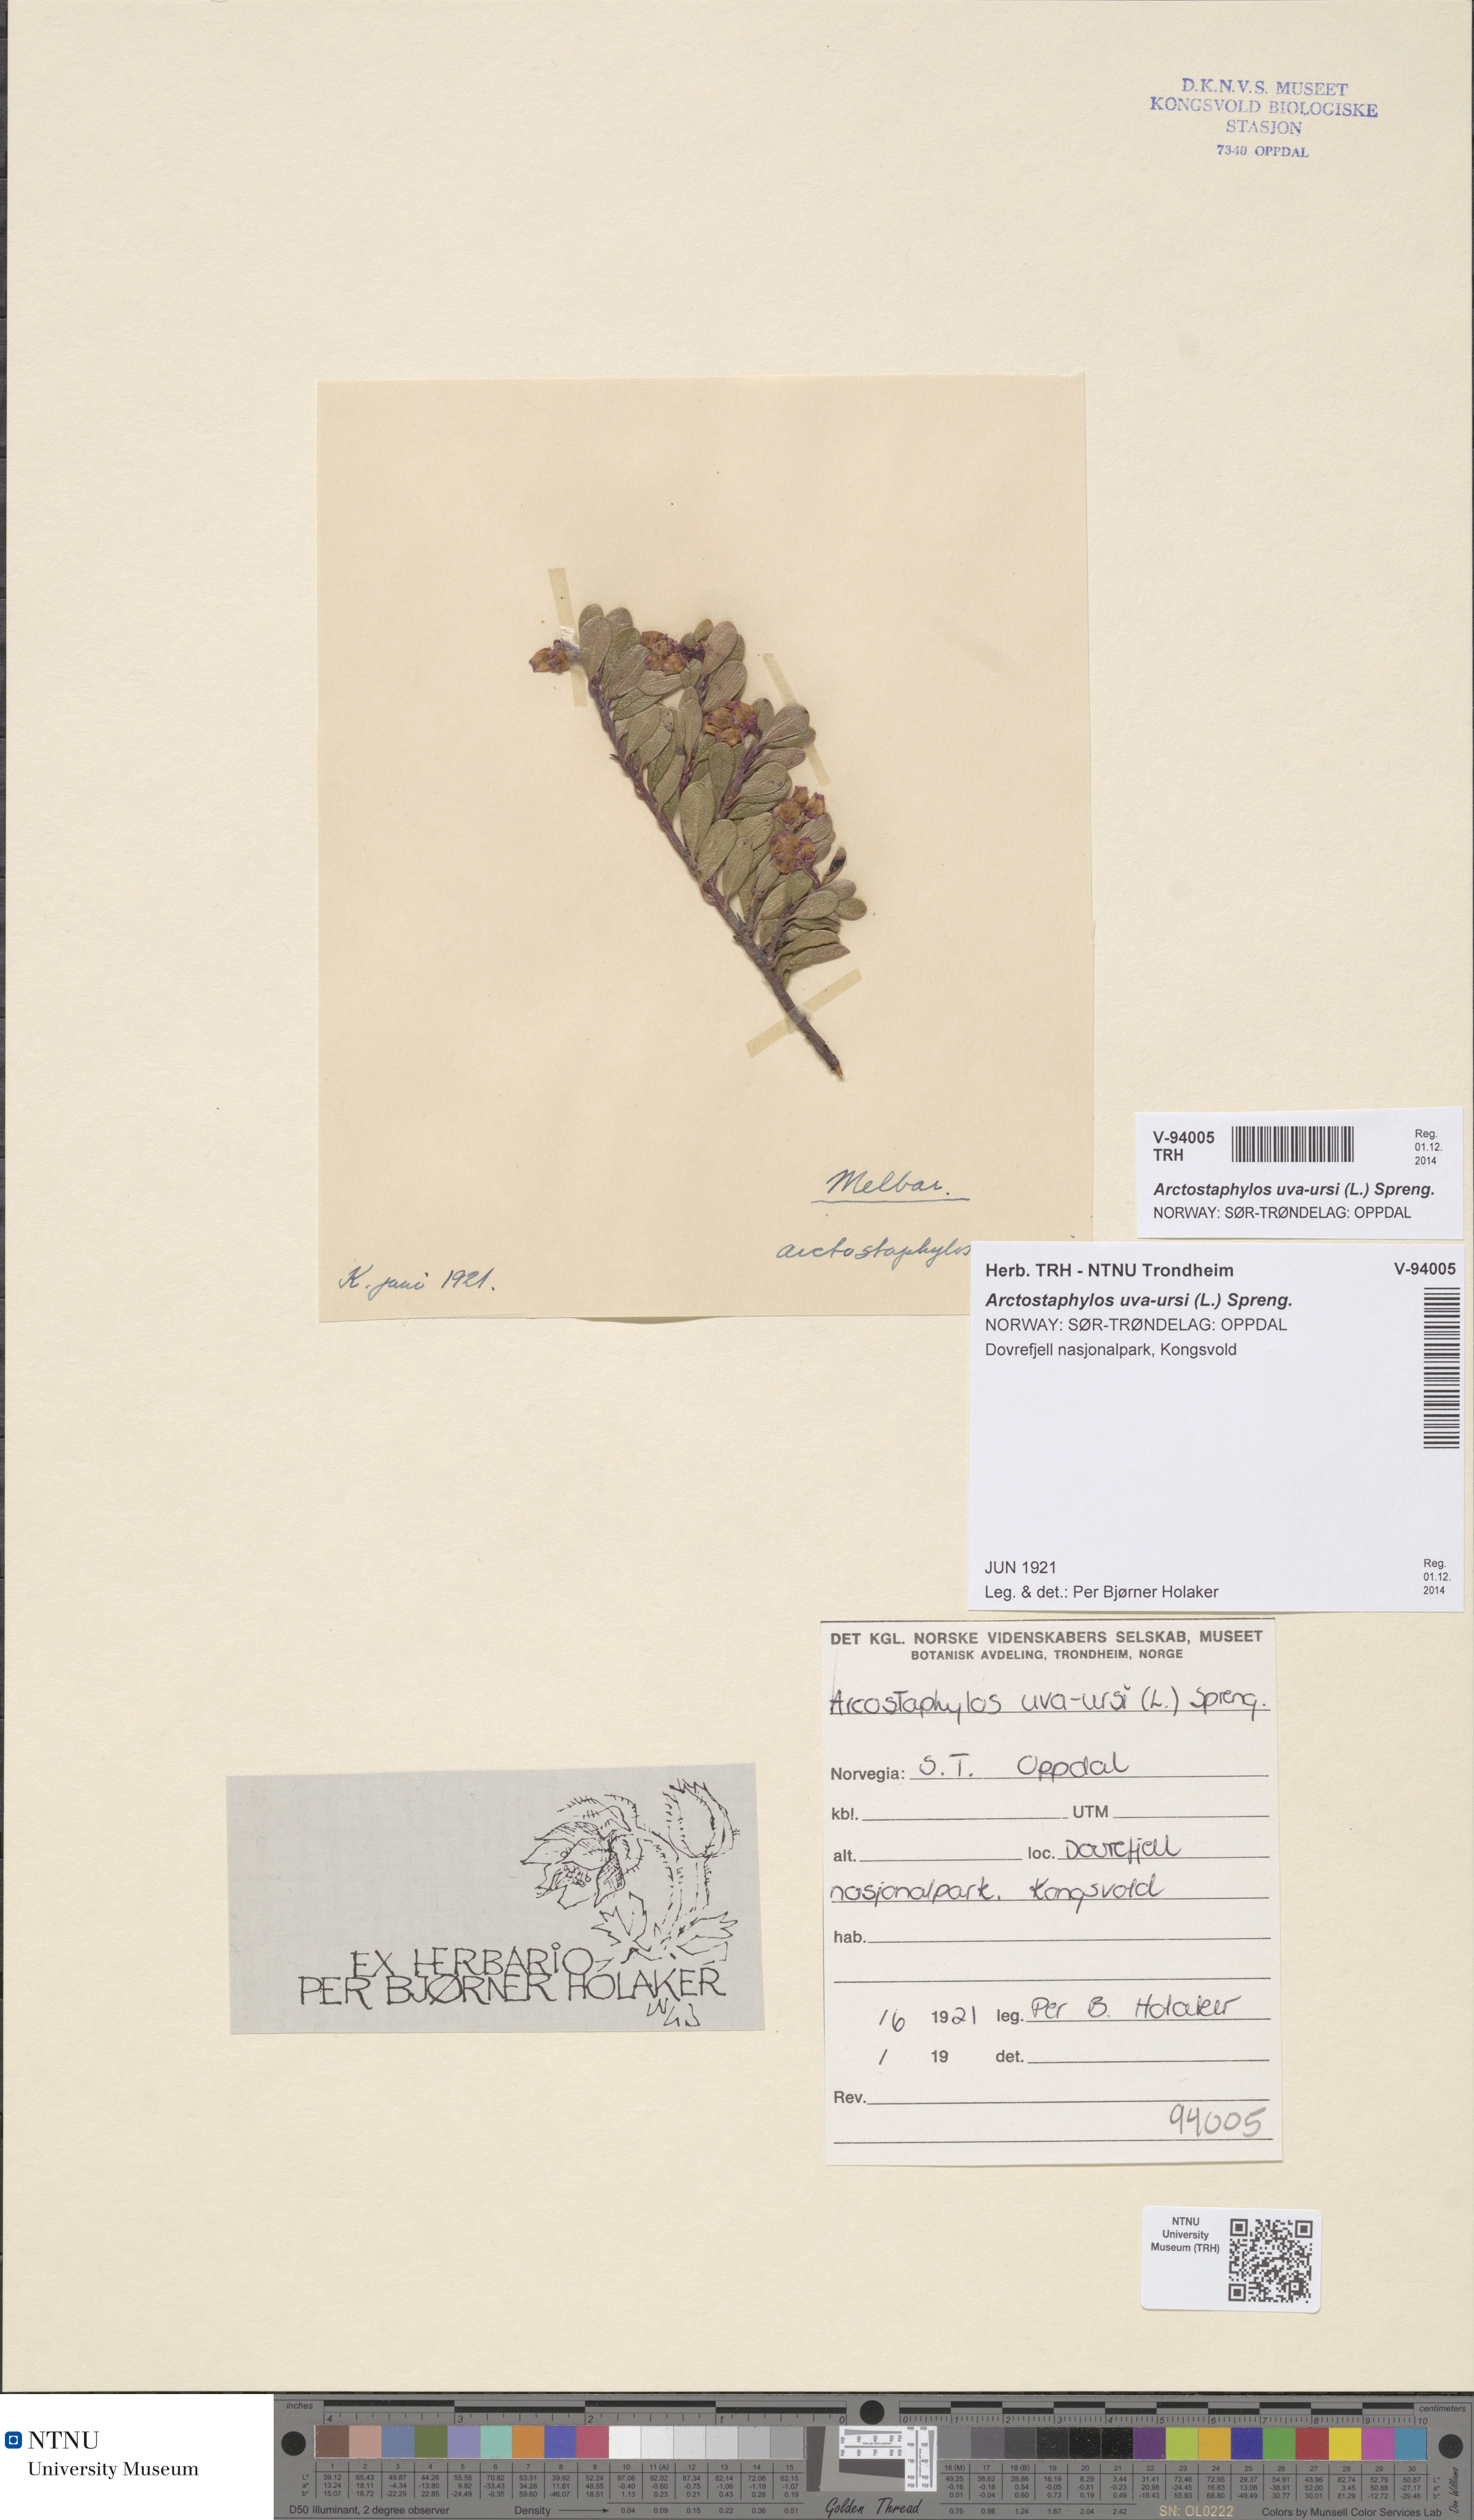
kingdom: Plantae
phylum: Tracheophyta
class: Magnoliopsida
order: Ericales
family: Ericaceae
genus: Arctostaphylos
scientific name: Arctostaphylos uva-ursi
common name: Bearberry
